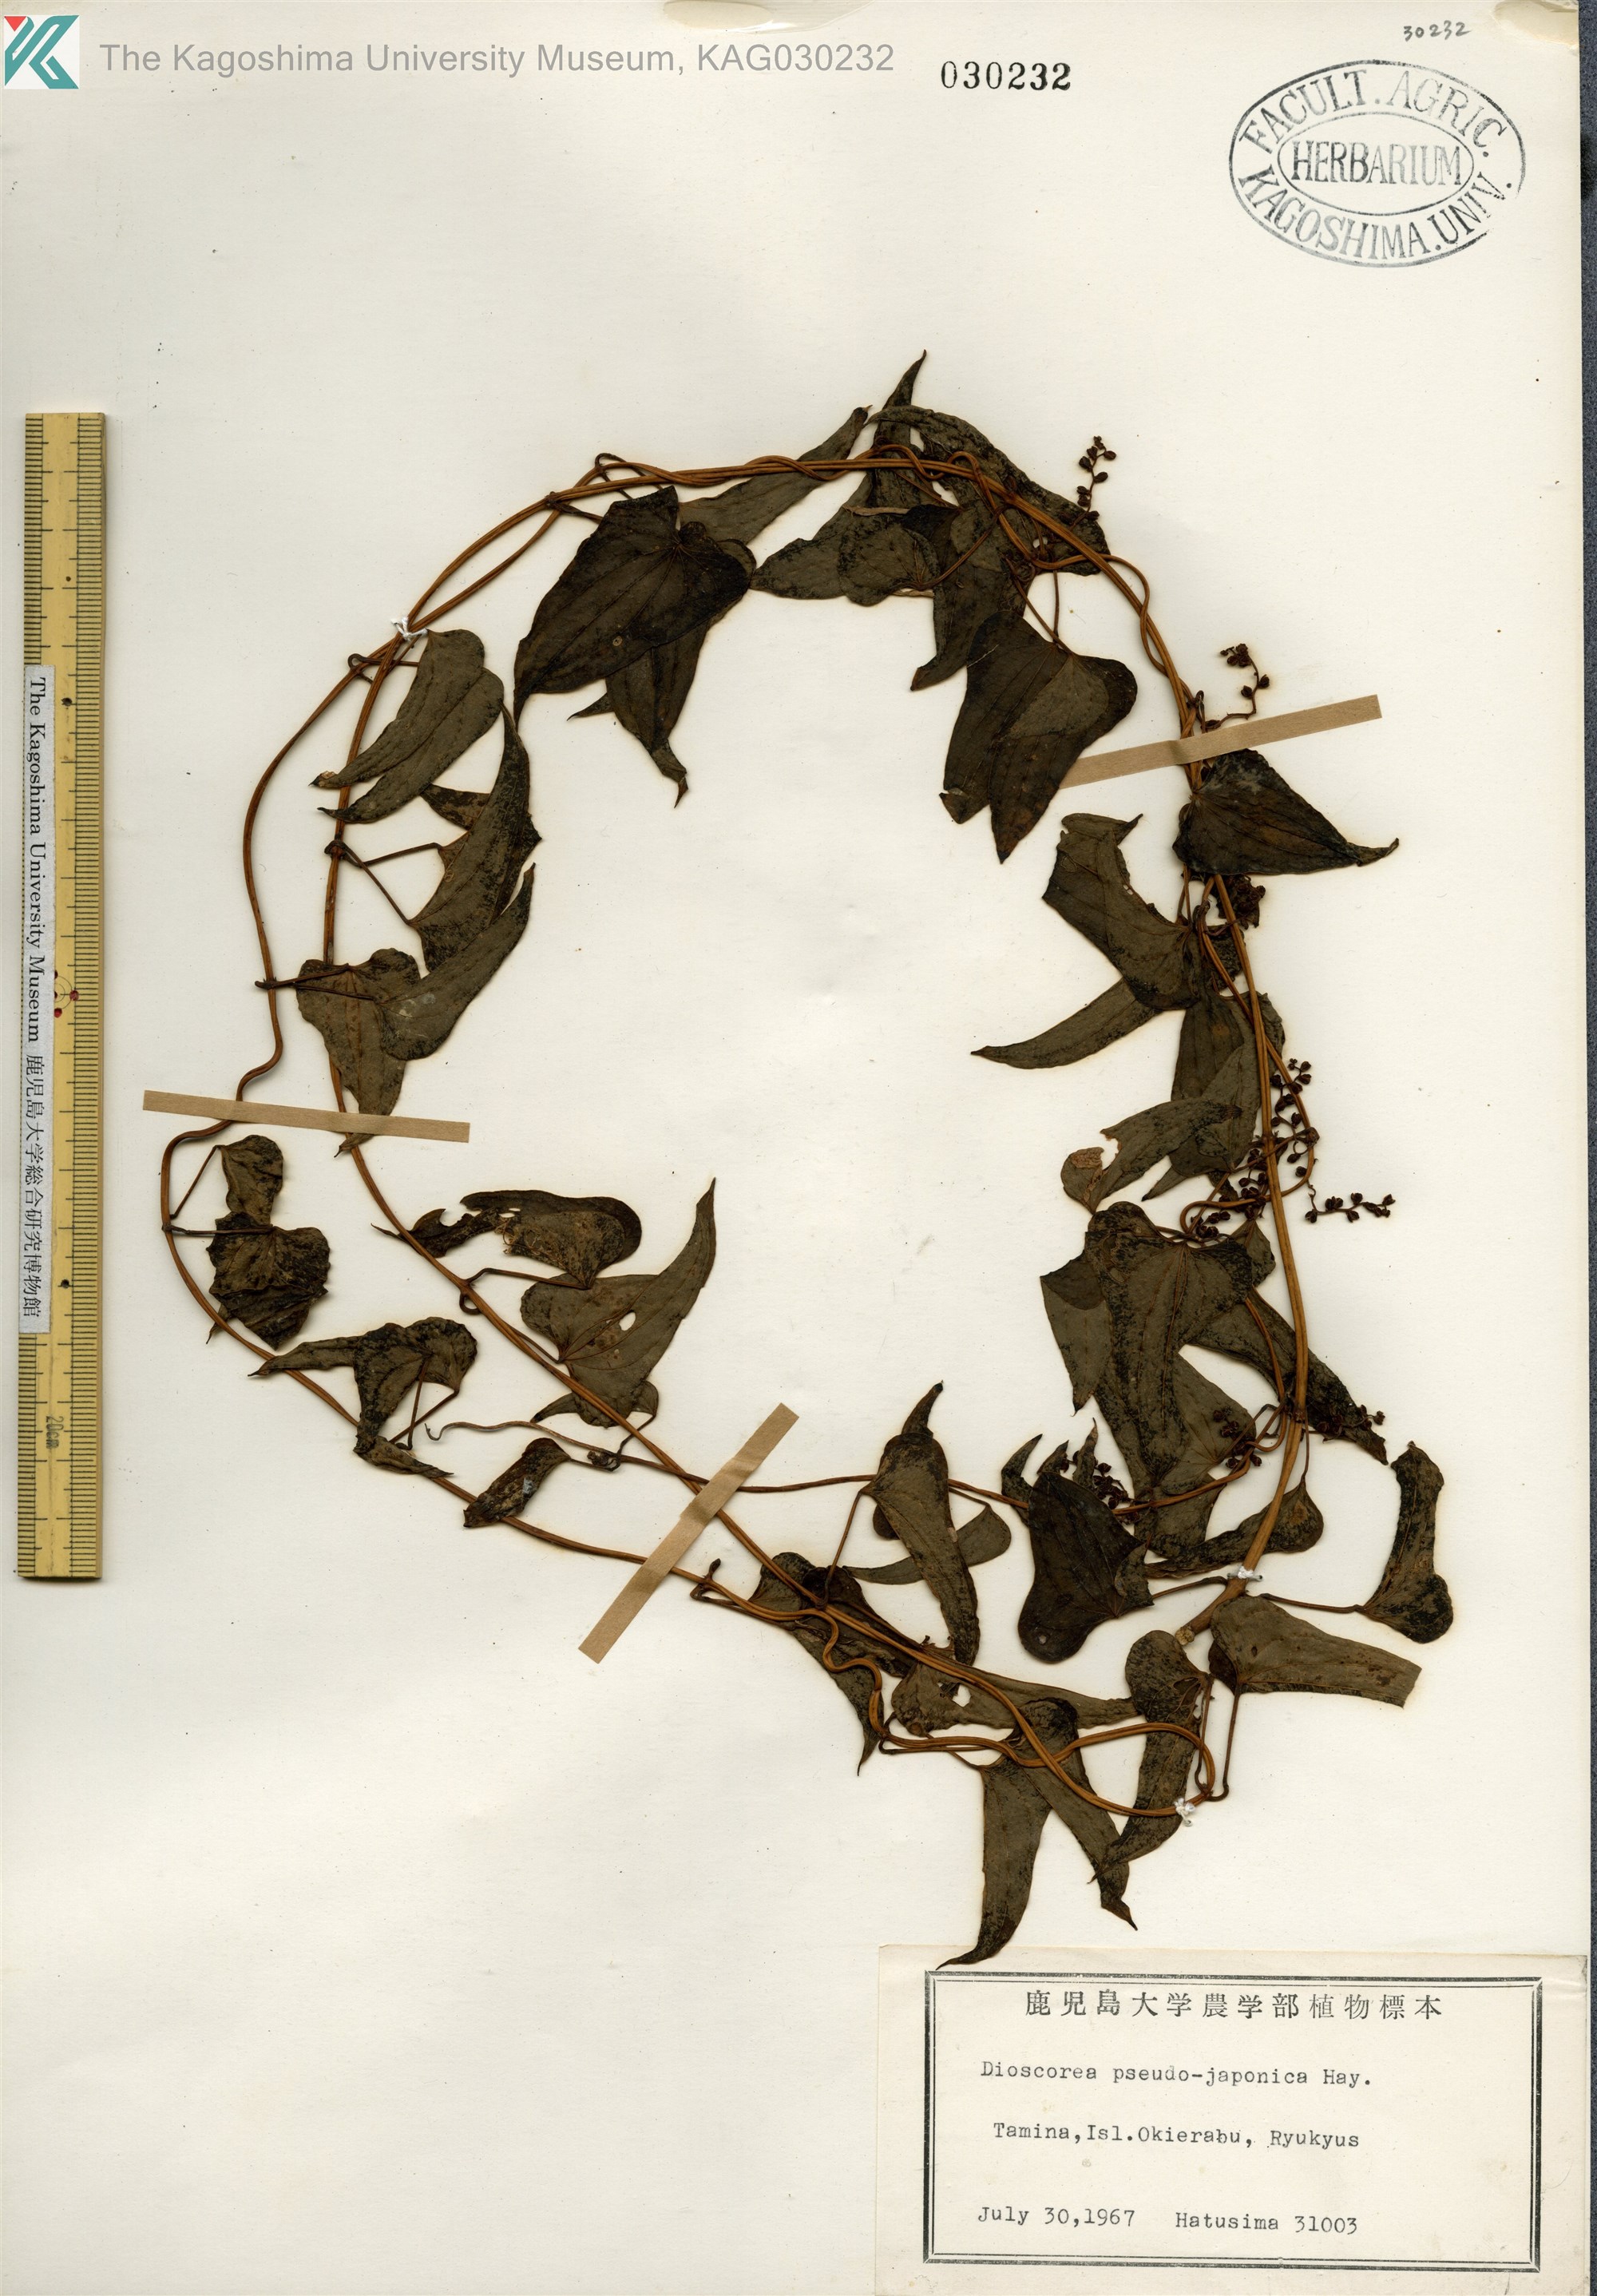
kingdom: Plantae
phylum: Tracheophyta
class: Liliopsida
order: Dioscoreales
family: Dioscoreaceae
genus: Dioscorea
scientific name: Dioscorea pseudojaponica
